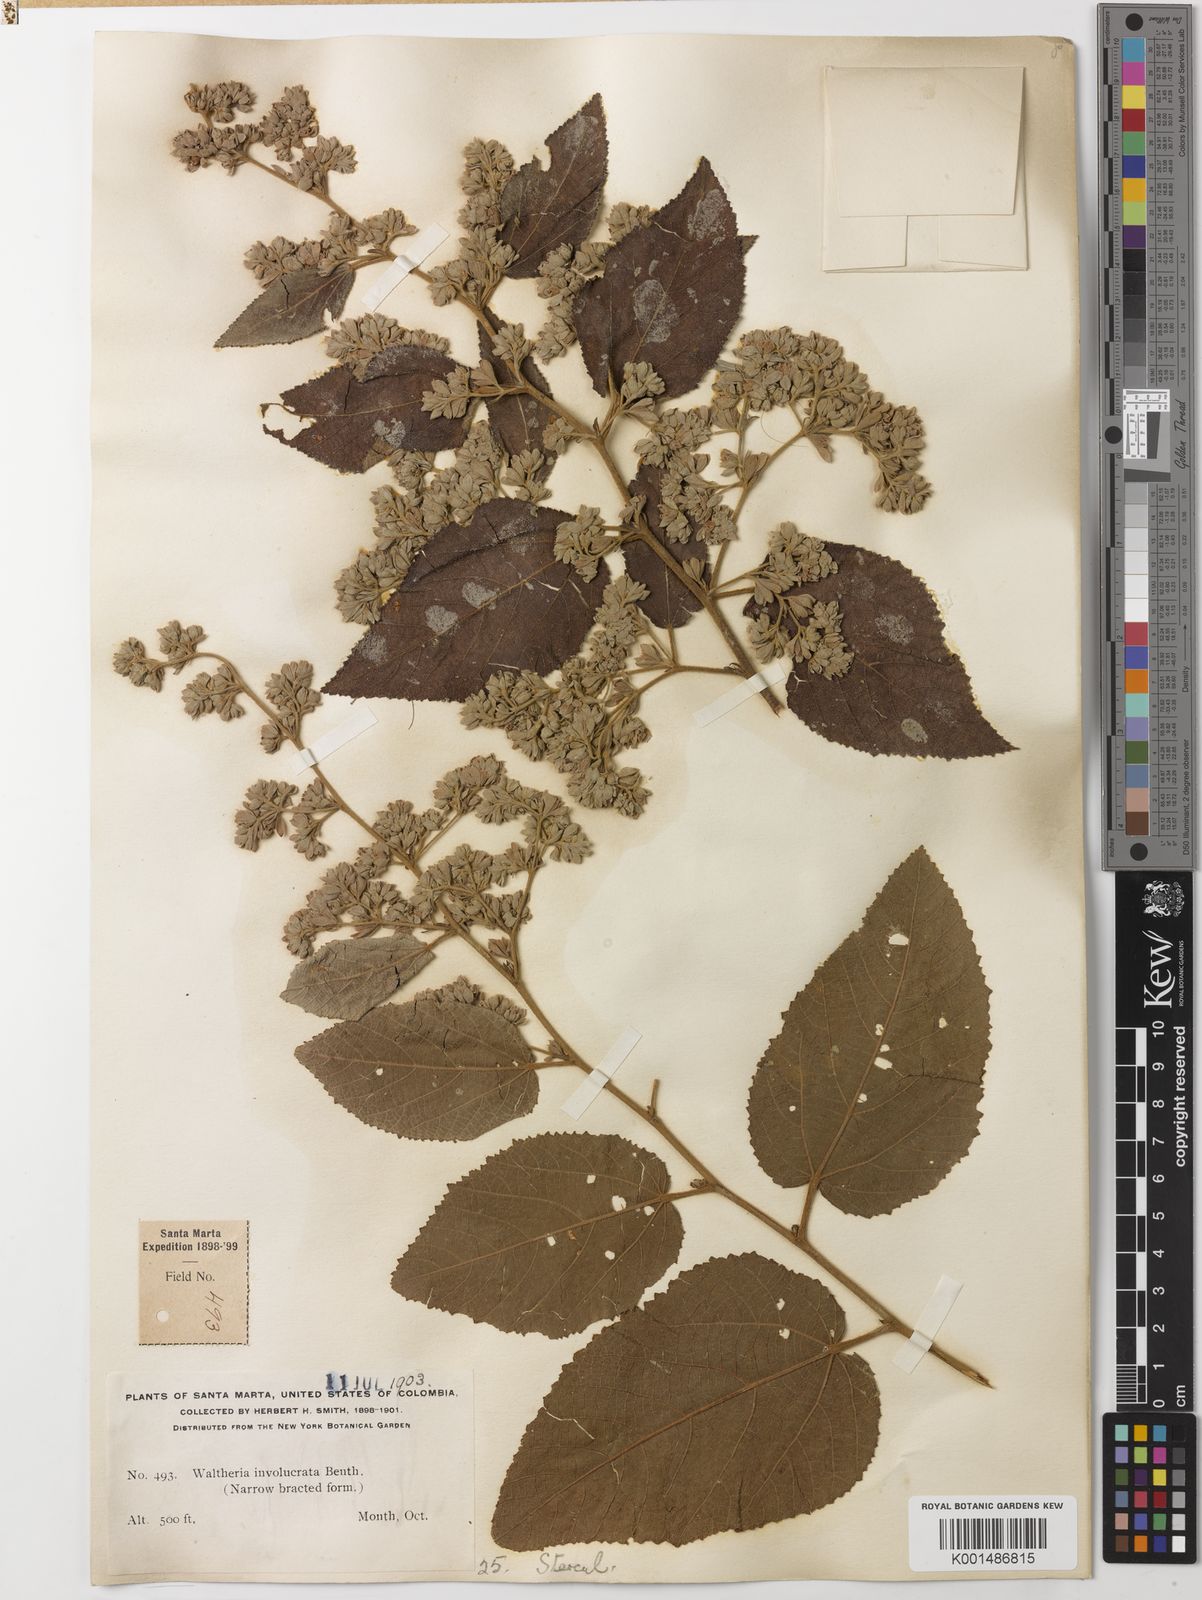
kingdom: Plantae
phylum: Tracheophyta
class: Magnoliopsida
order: Malvales
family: Malvaceae
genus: Waltheria
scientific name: Waltheria involucrata
